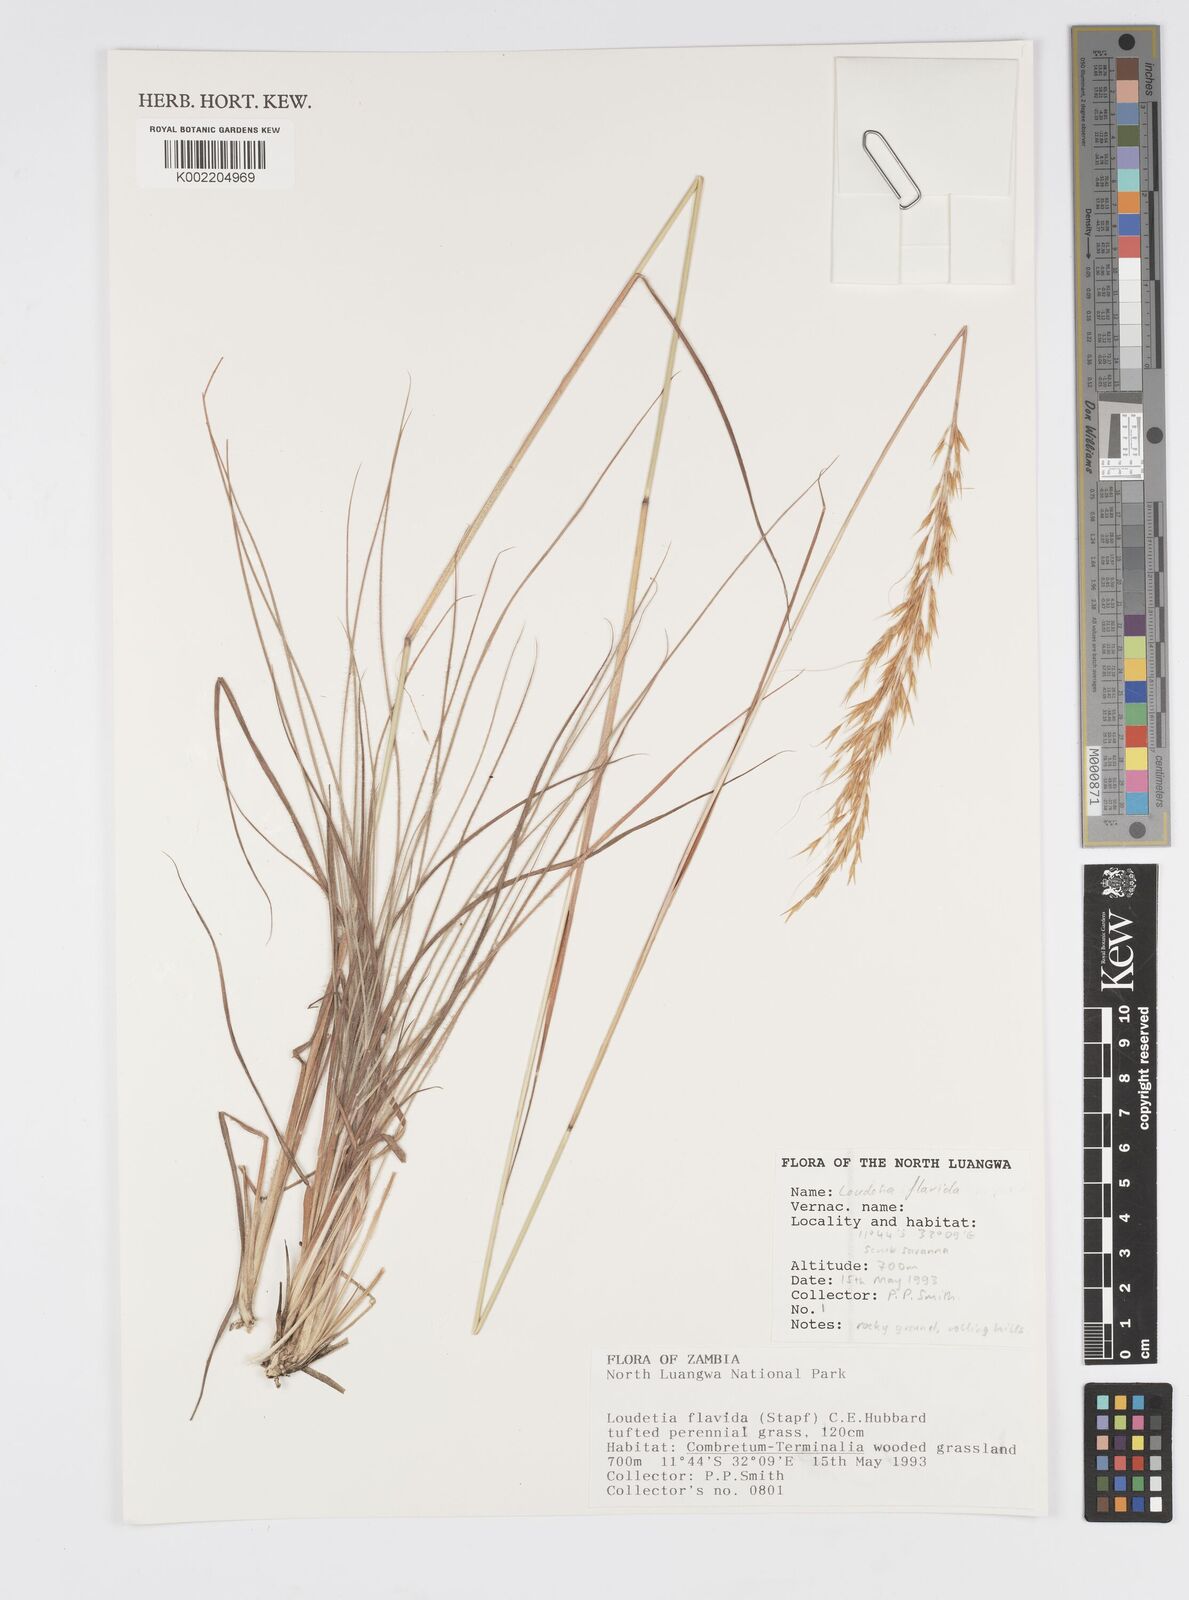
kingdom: Plantae
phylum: Tracheophyta
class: Liliopsida
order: Poales
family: Poaceae
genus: Loudetia
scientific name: Loudetia flavida
